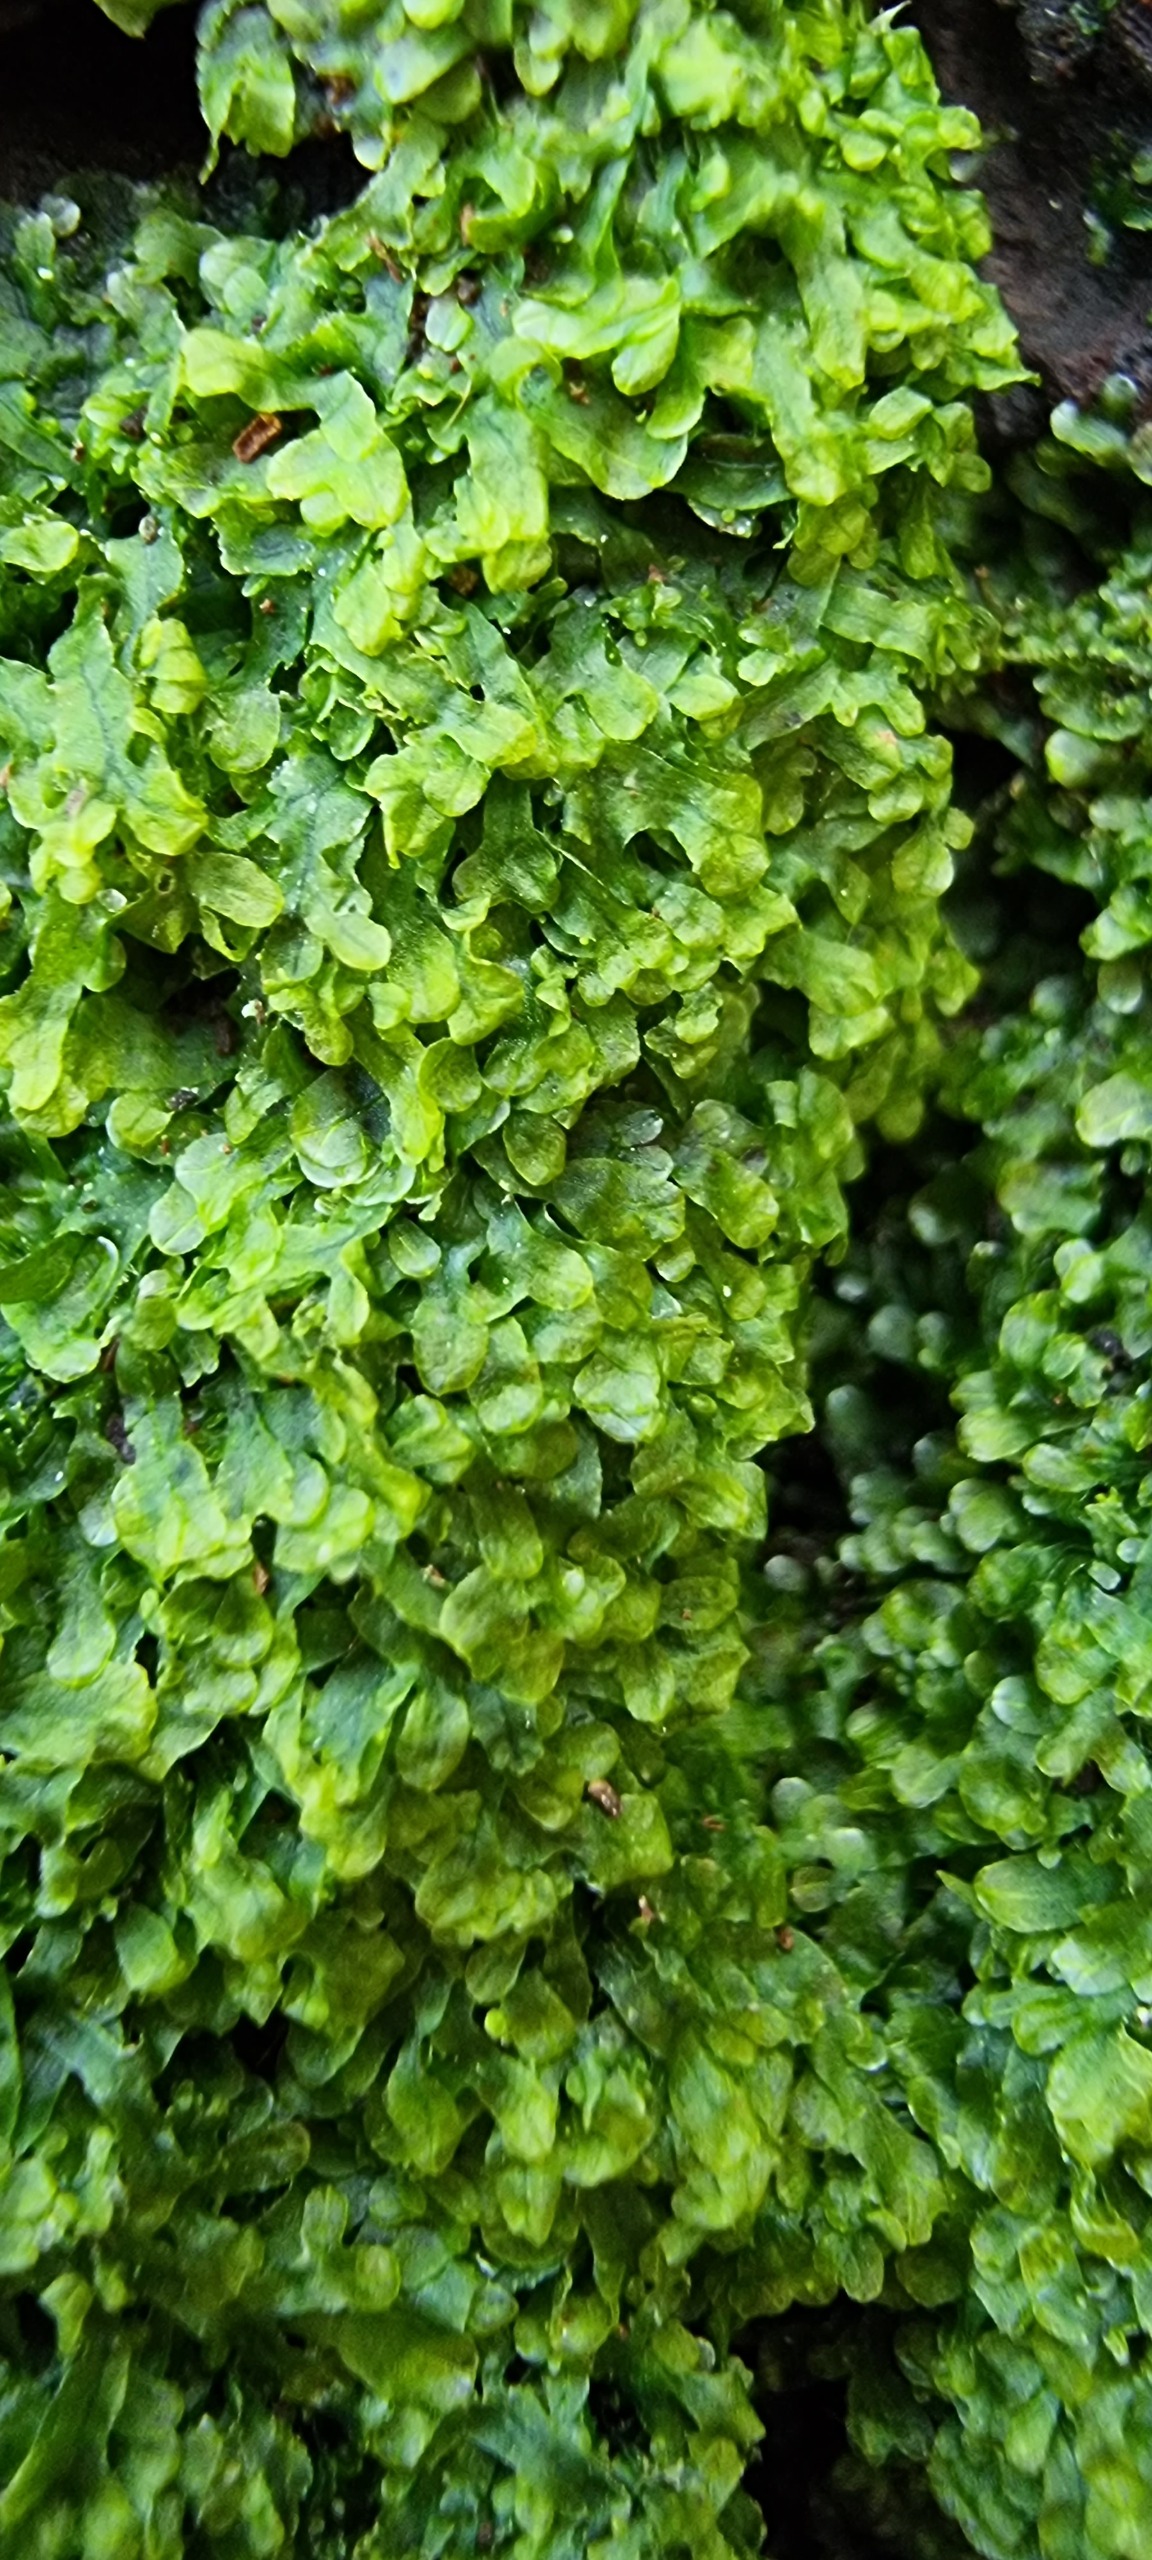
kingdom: Plantae
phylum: Marchantiophyta
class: Jungermanniopsida
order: Metzgeriales
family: Metzgeriaceae
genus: Metzgeria
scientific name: Metzgeria furcata
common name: Almindelig gaffelløv
